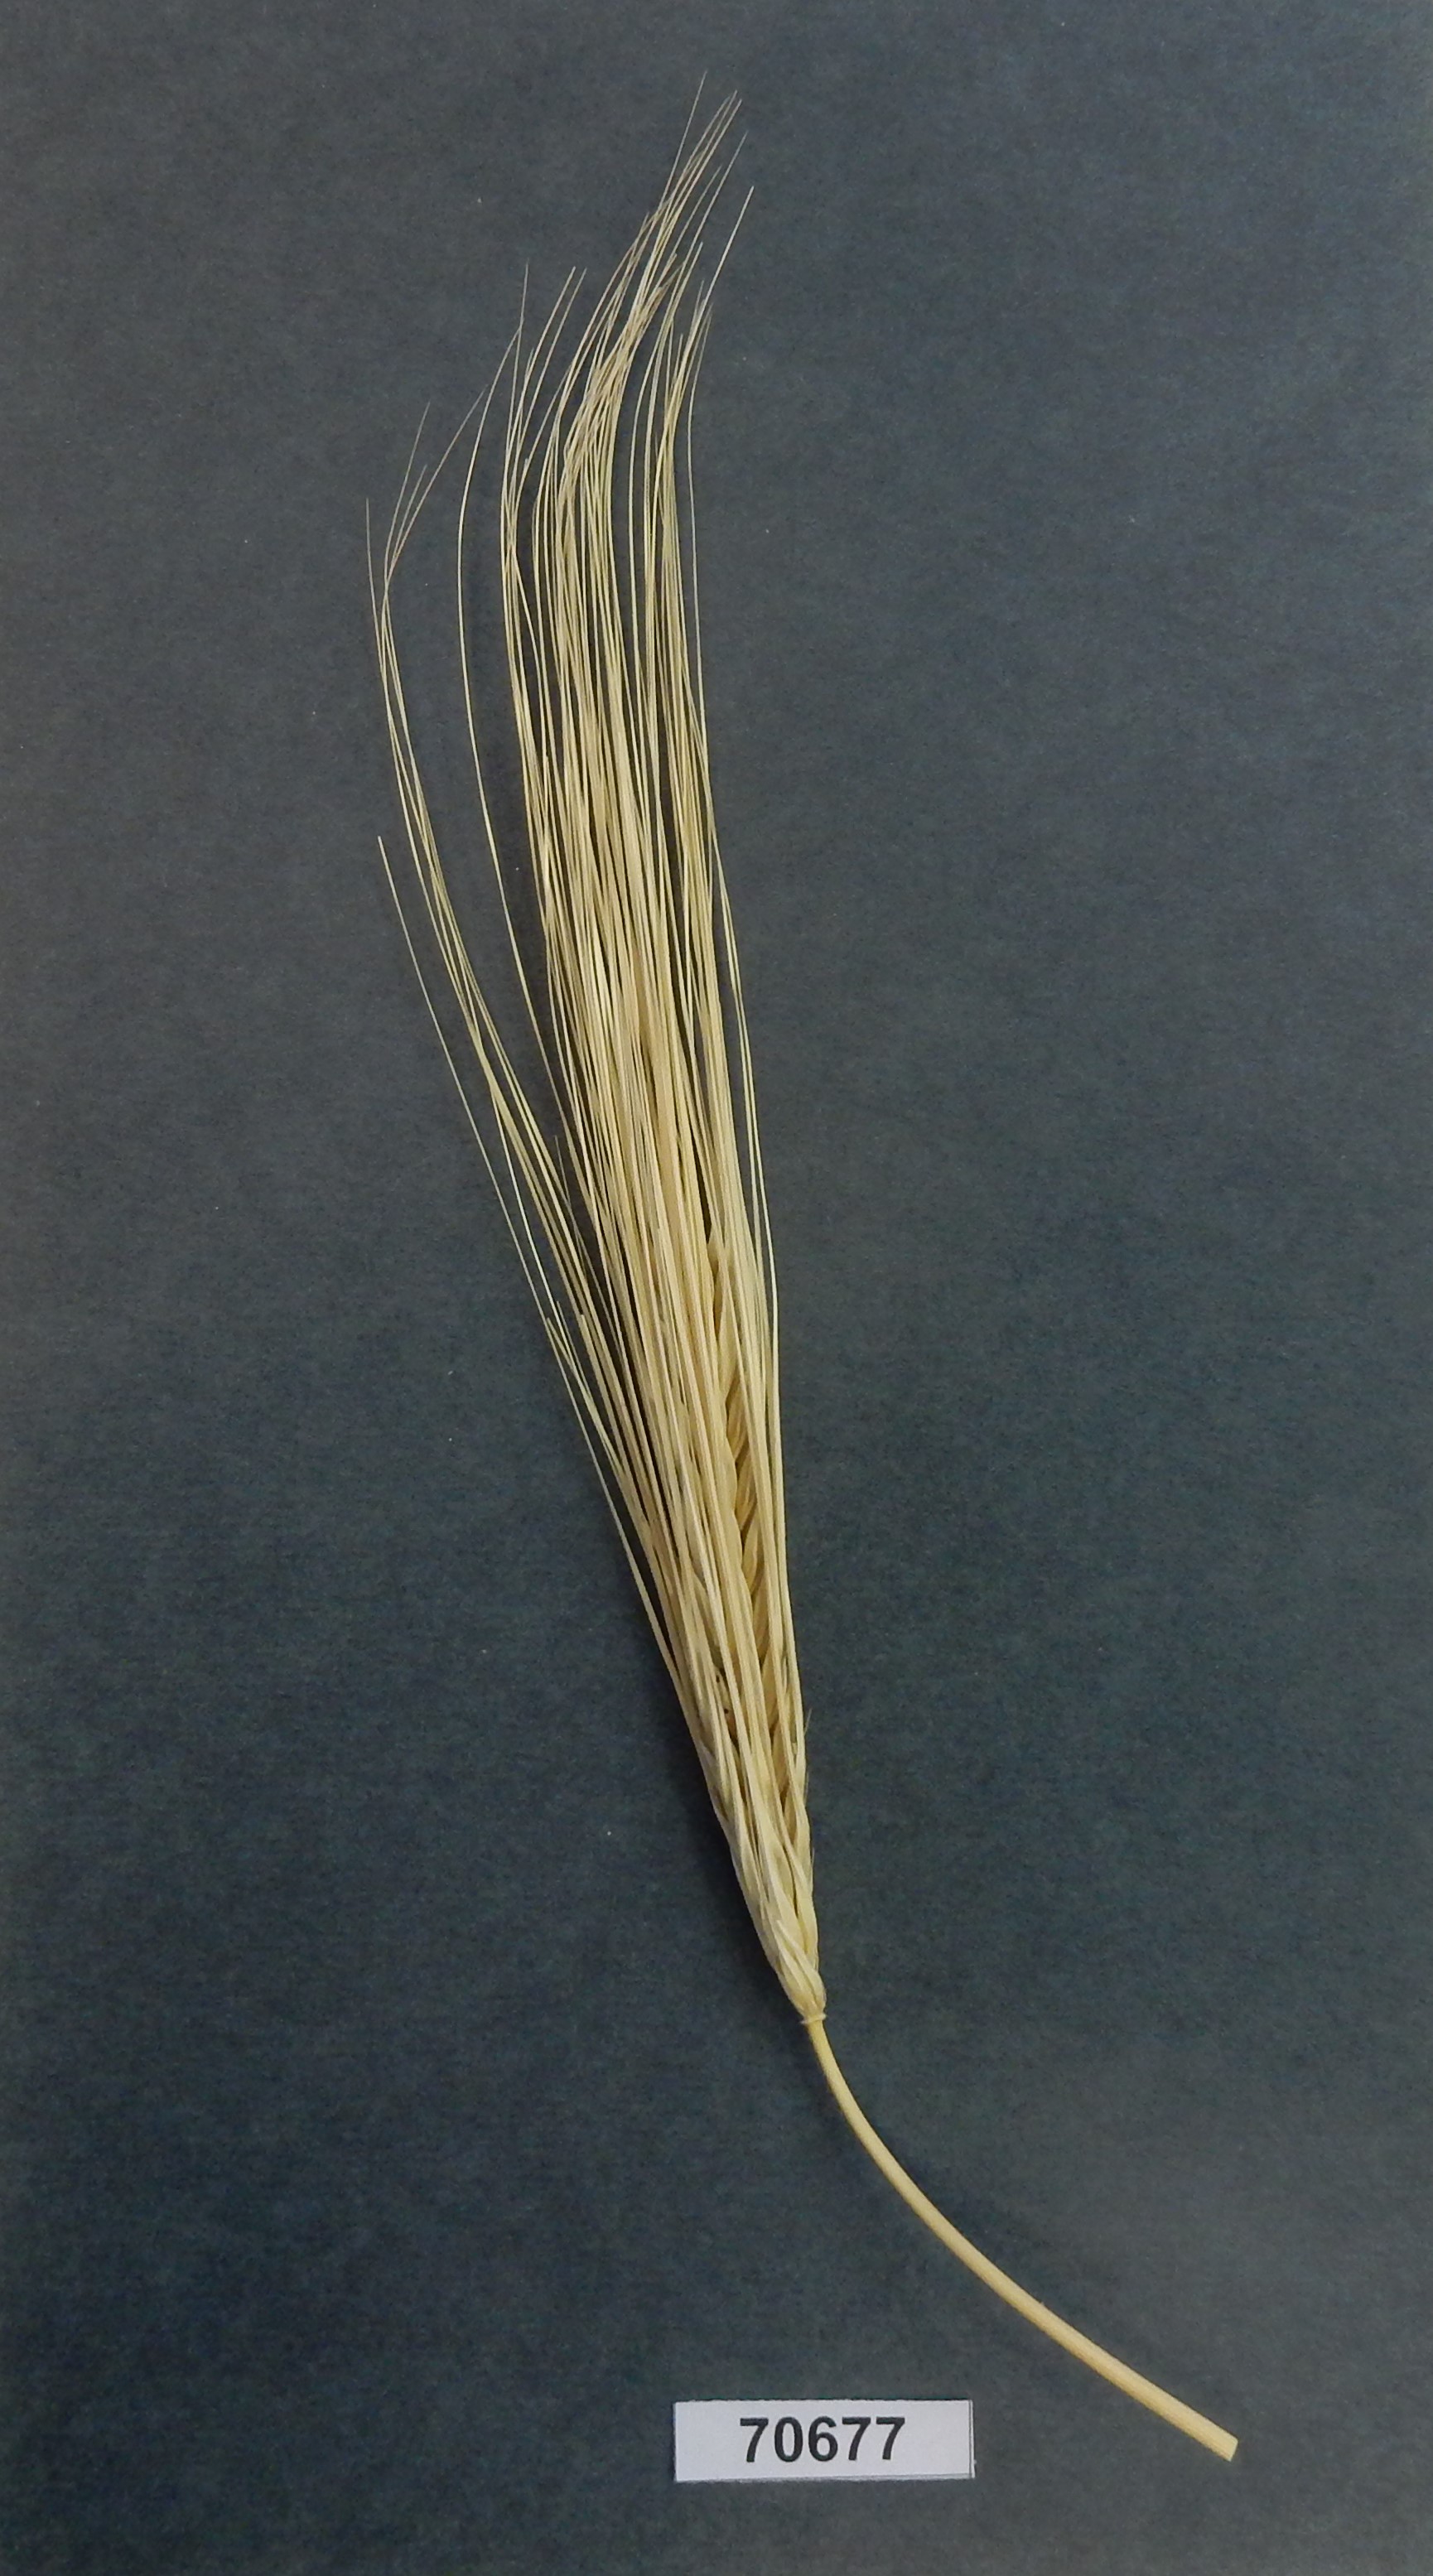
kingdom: Plantae
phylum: Tracheophyta
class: Liliopsida
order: Poales
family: Poaceae
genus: Hordeum
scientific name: Hordeum vulgare
